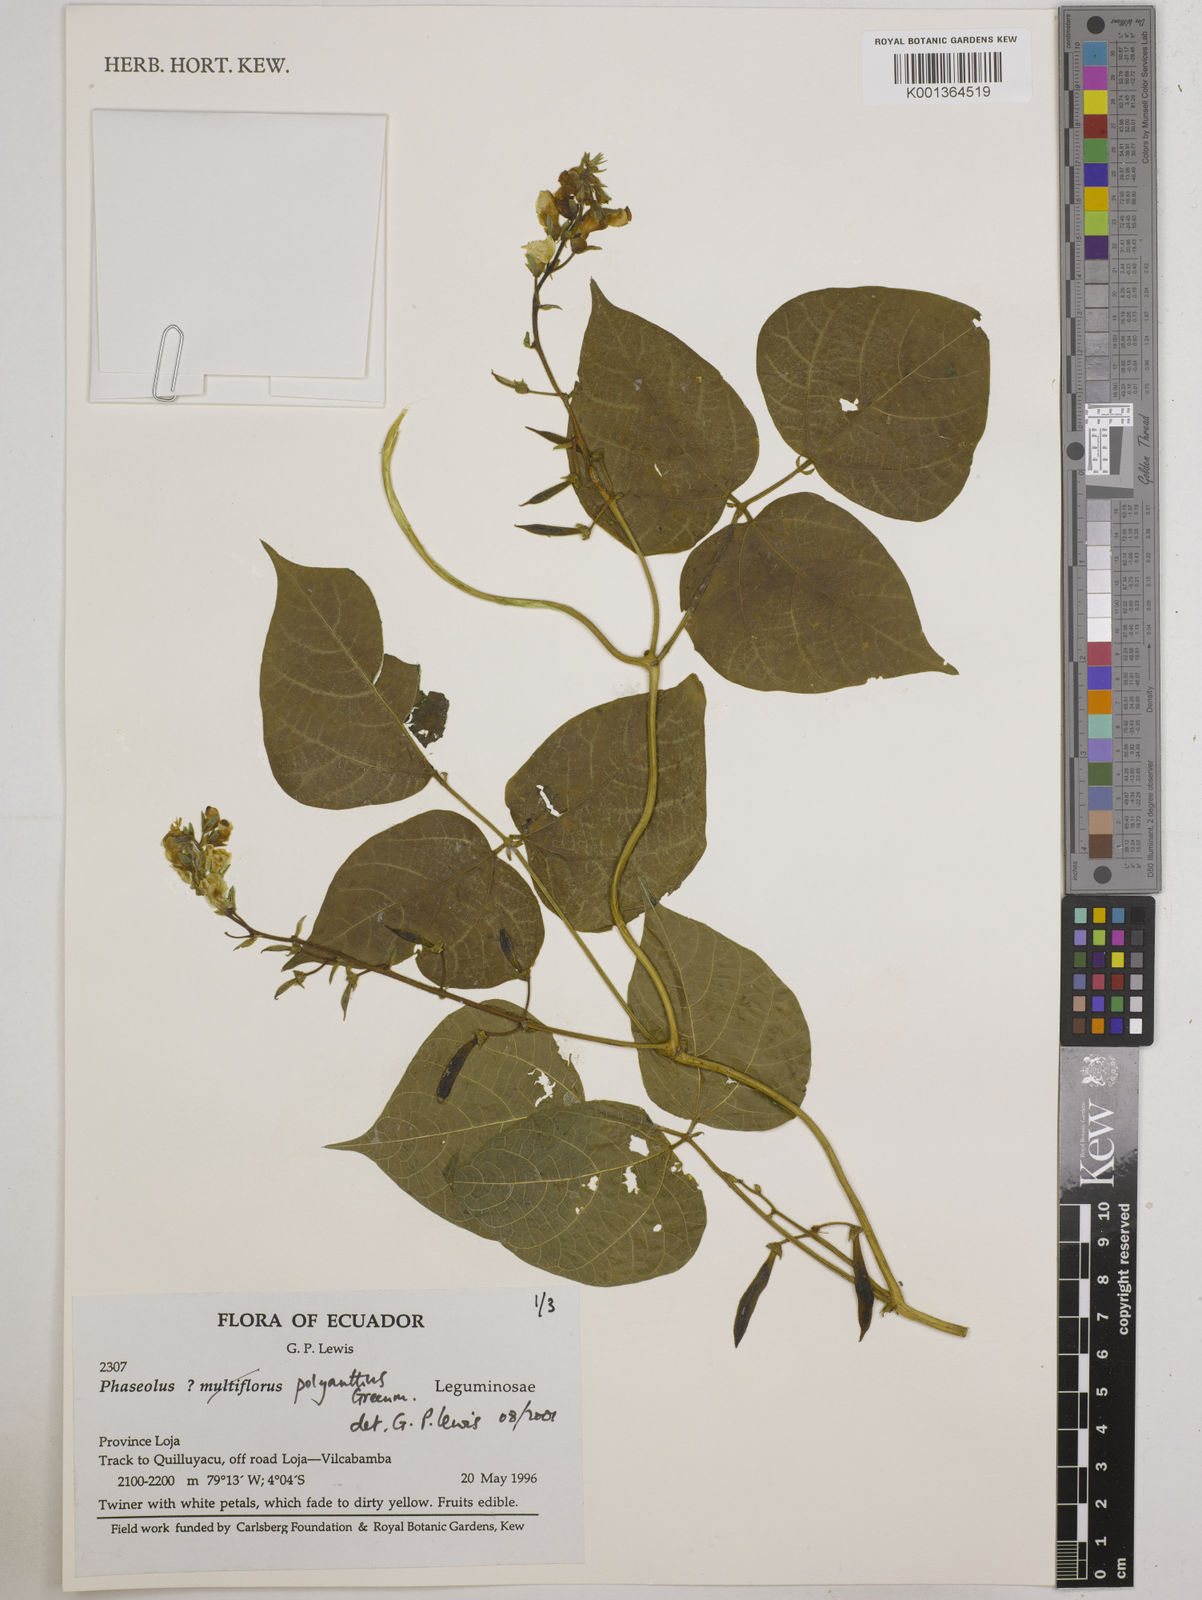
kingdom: Plantae
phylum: Tracheophyta
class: Magnoliopsida
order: Fabales
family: Fabaceae
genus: Phaseolus
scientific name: Phaseolus dumosus
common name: Year bean
